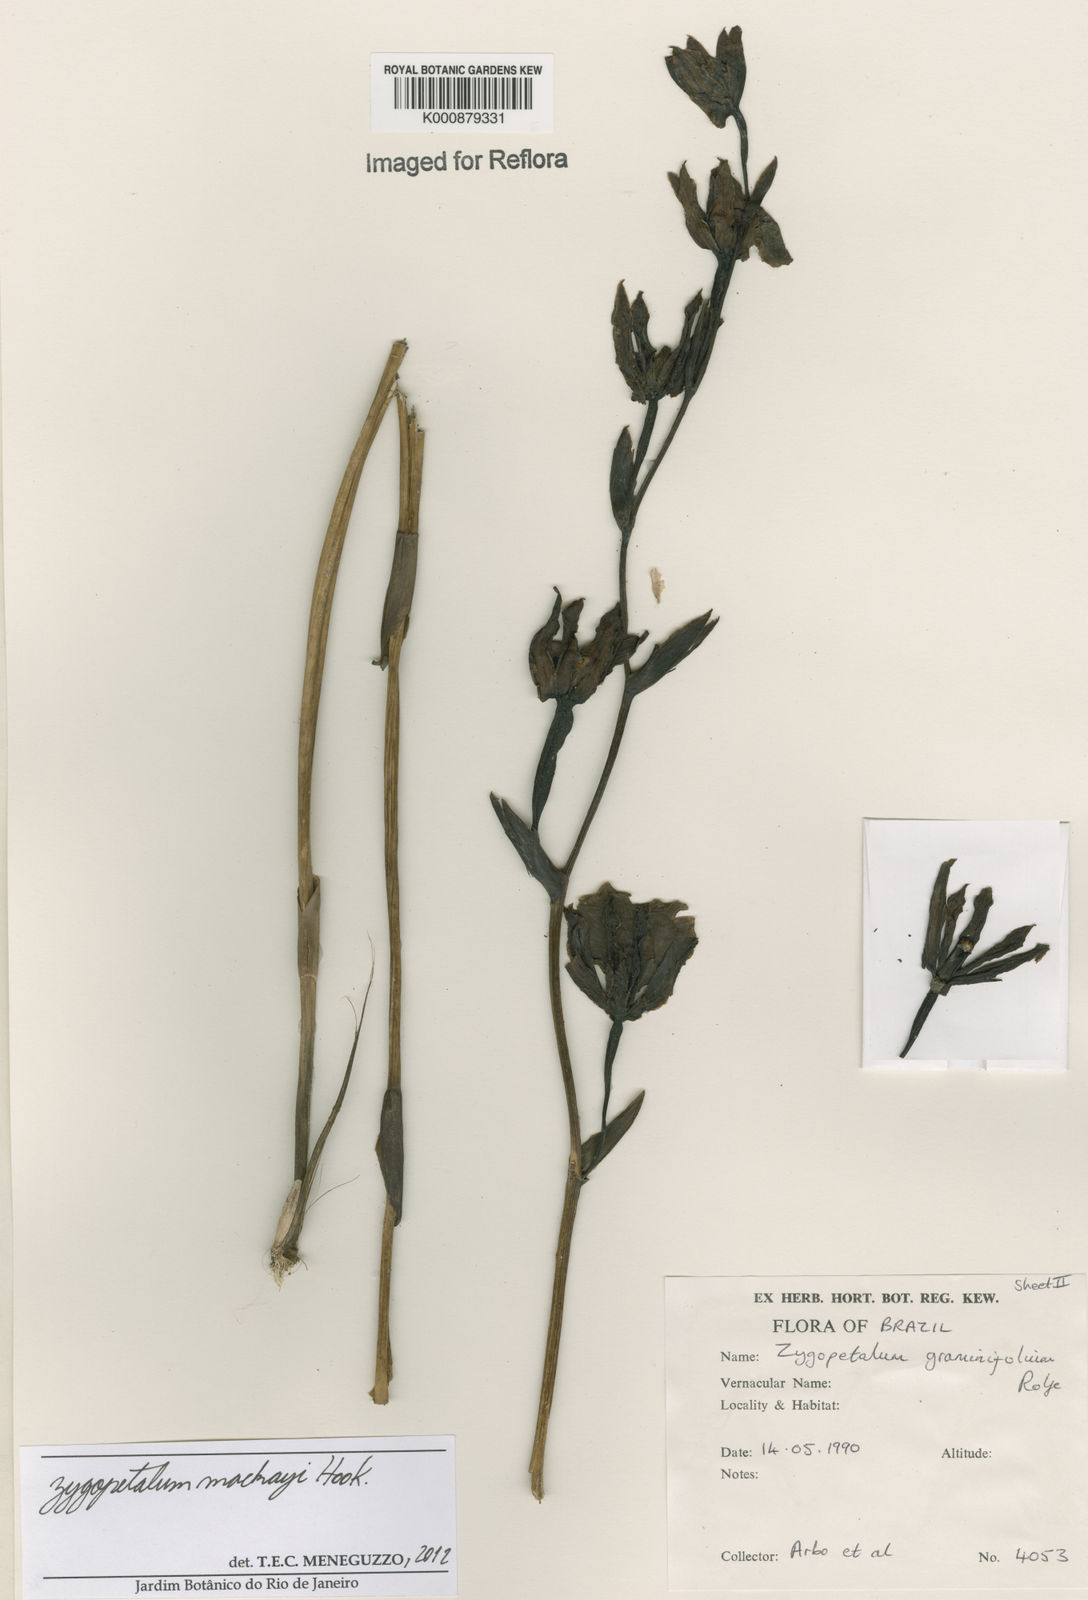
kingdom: Plantae
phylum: Tracheophyta
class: Liliopsida
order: Asparagales
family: Orchidaceae
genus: Zygopetalum
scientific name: Zygopetalum maculatum
